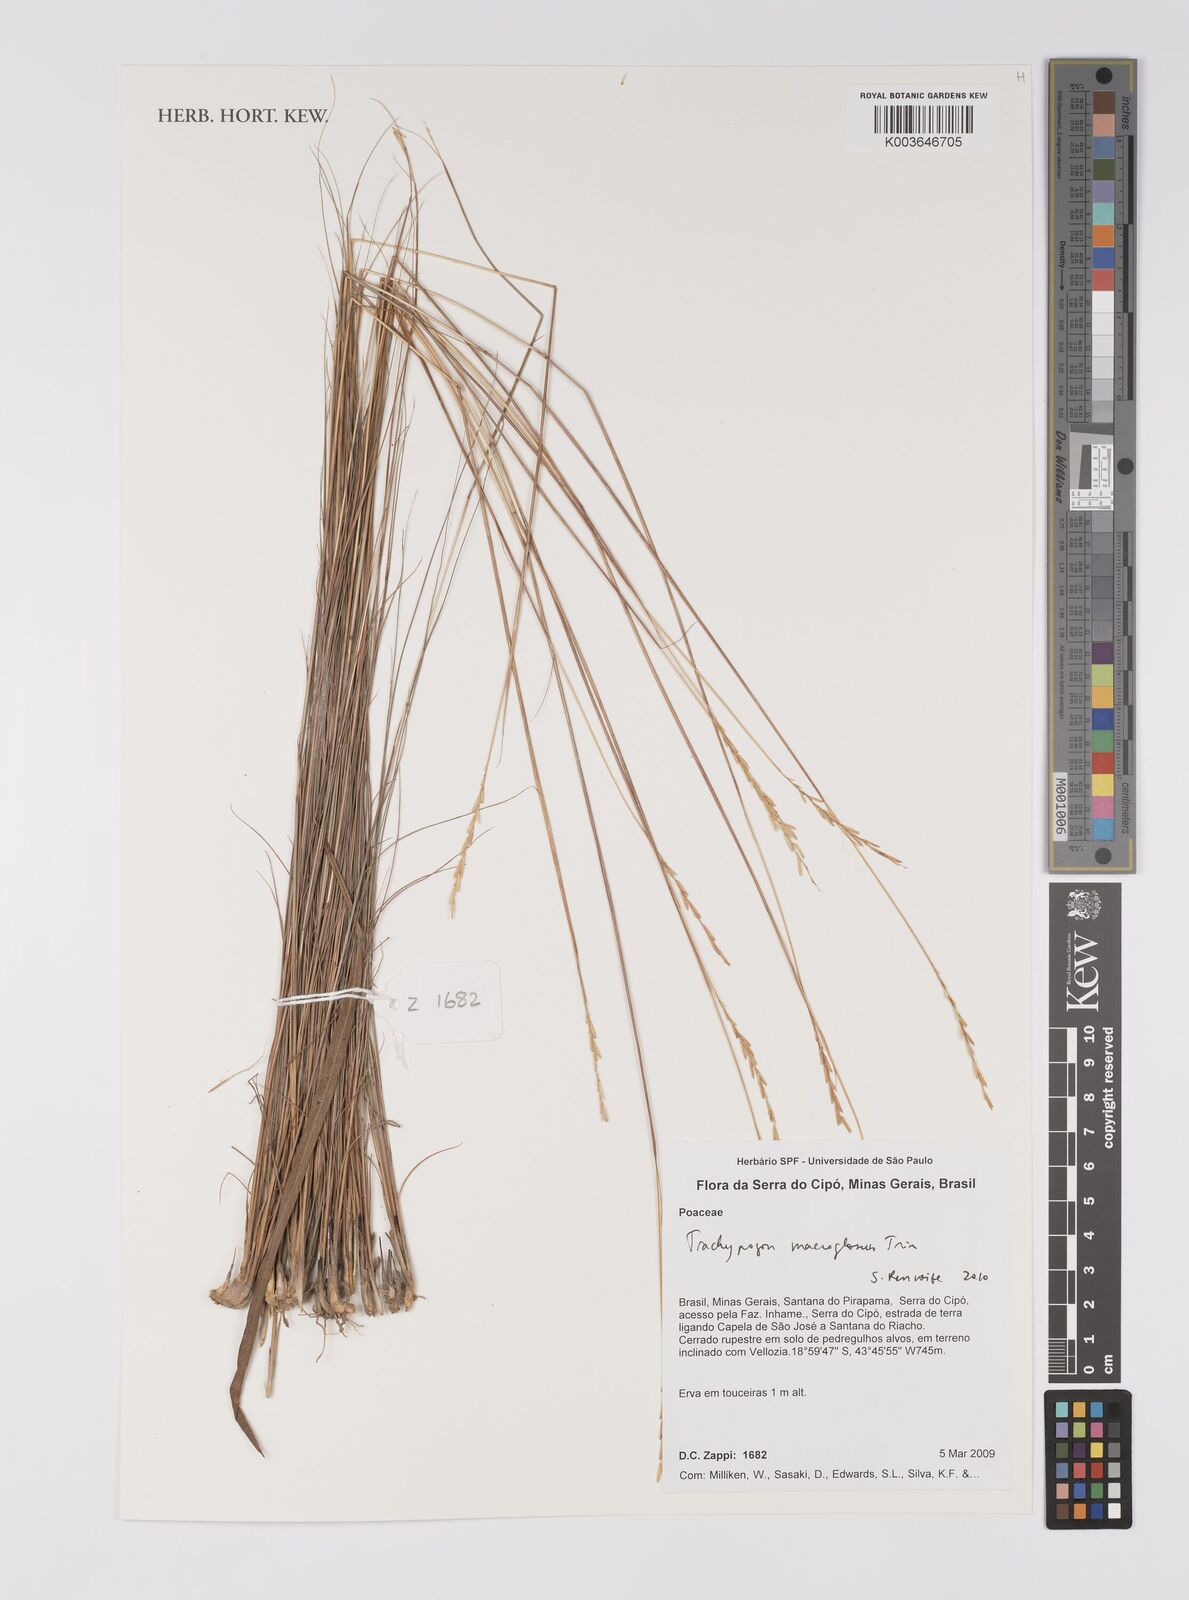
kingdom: Plantae
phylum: Tracheophyta
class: Liliopsida
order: Poales
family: Poaceae
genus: Trachypogon
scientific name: Trachypogon macroglossus
